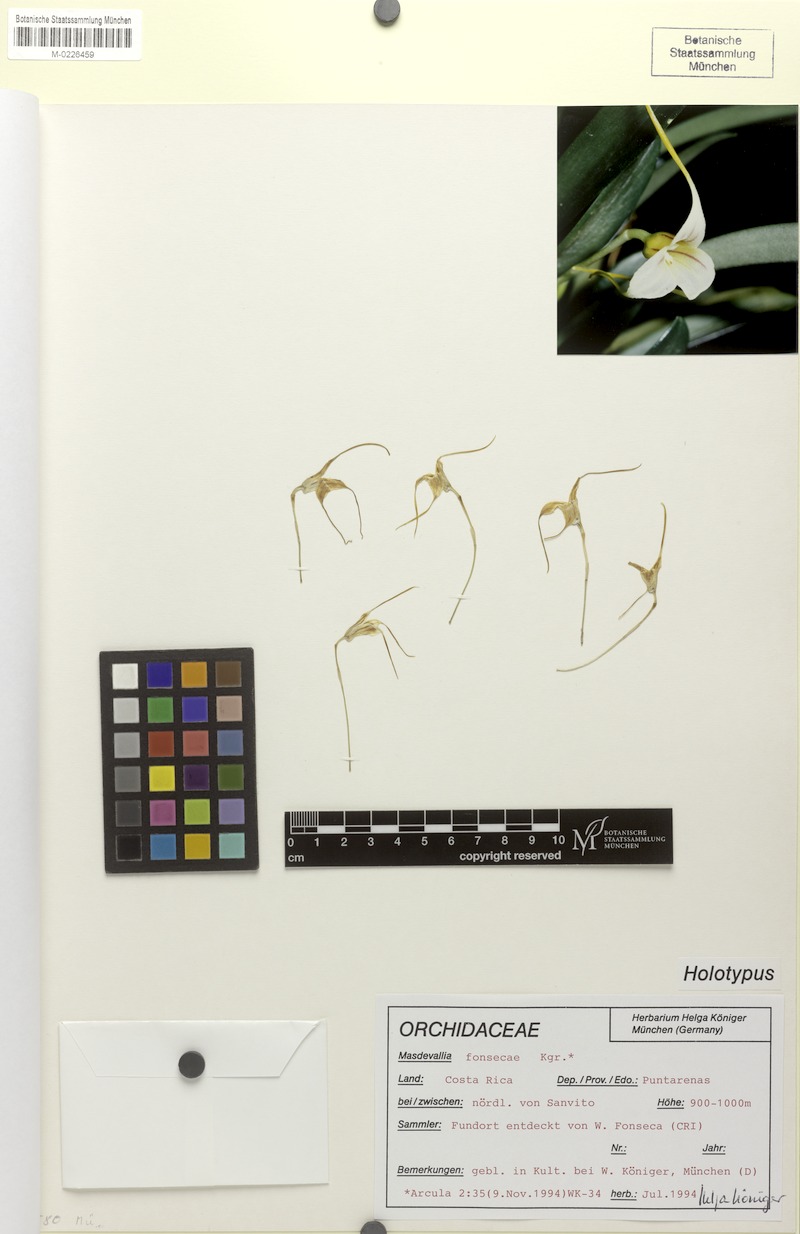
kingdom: Plantae
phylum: Tracheophyta
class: Liliopsida
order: Asparagales
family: Orchidaceae
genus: Masdevallia
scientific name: Masdevallia attenuata
